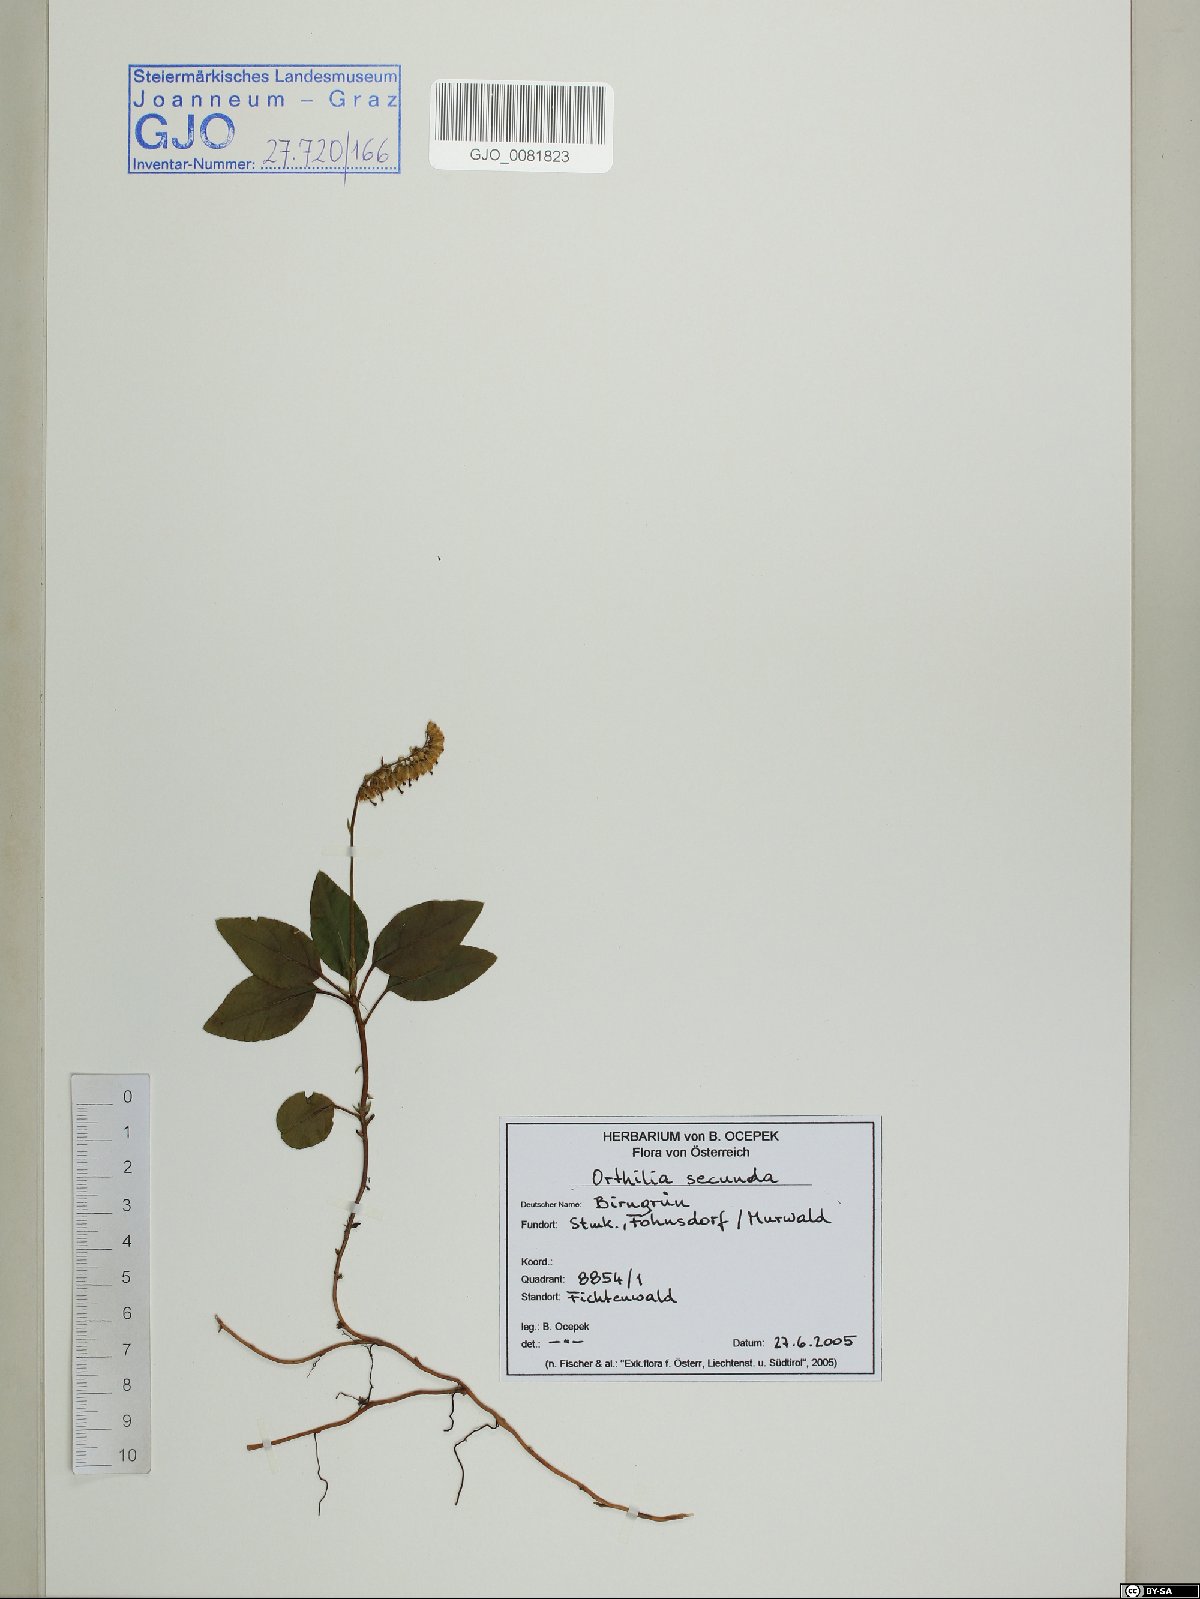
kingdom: Plantae
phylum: Tracheophyta
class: Magnoliopsida
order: Ericales
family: Ericaceae
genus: Orthilia
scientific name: Orthilia secunda
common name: One-sided orthilia
